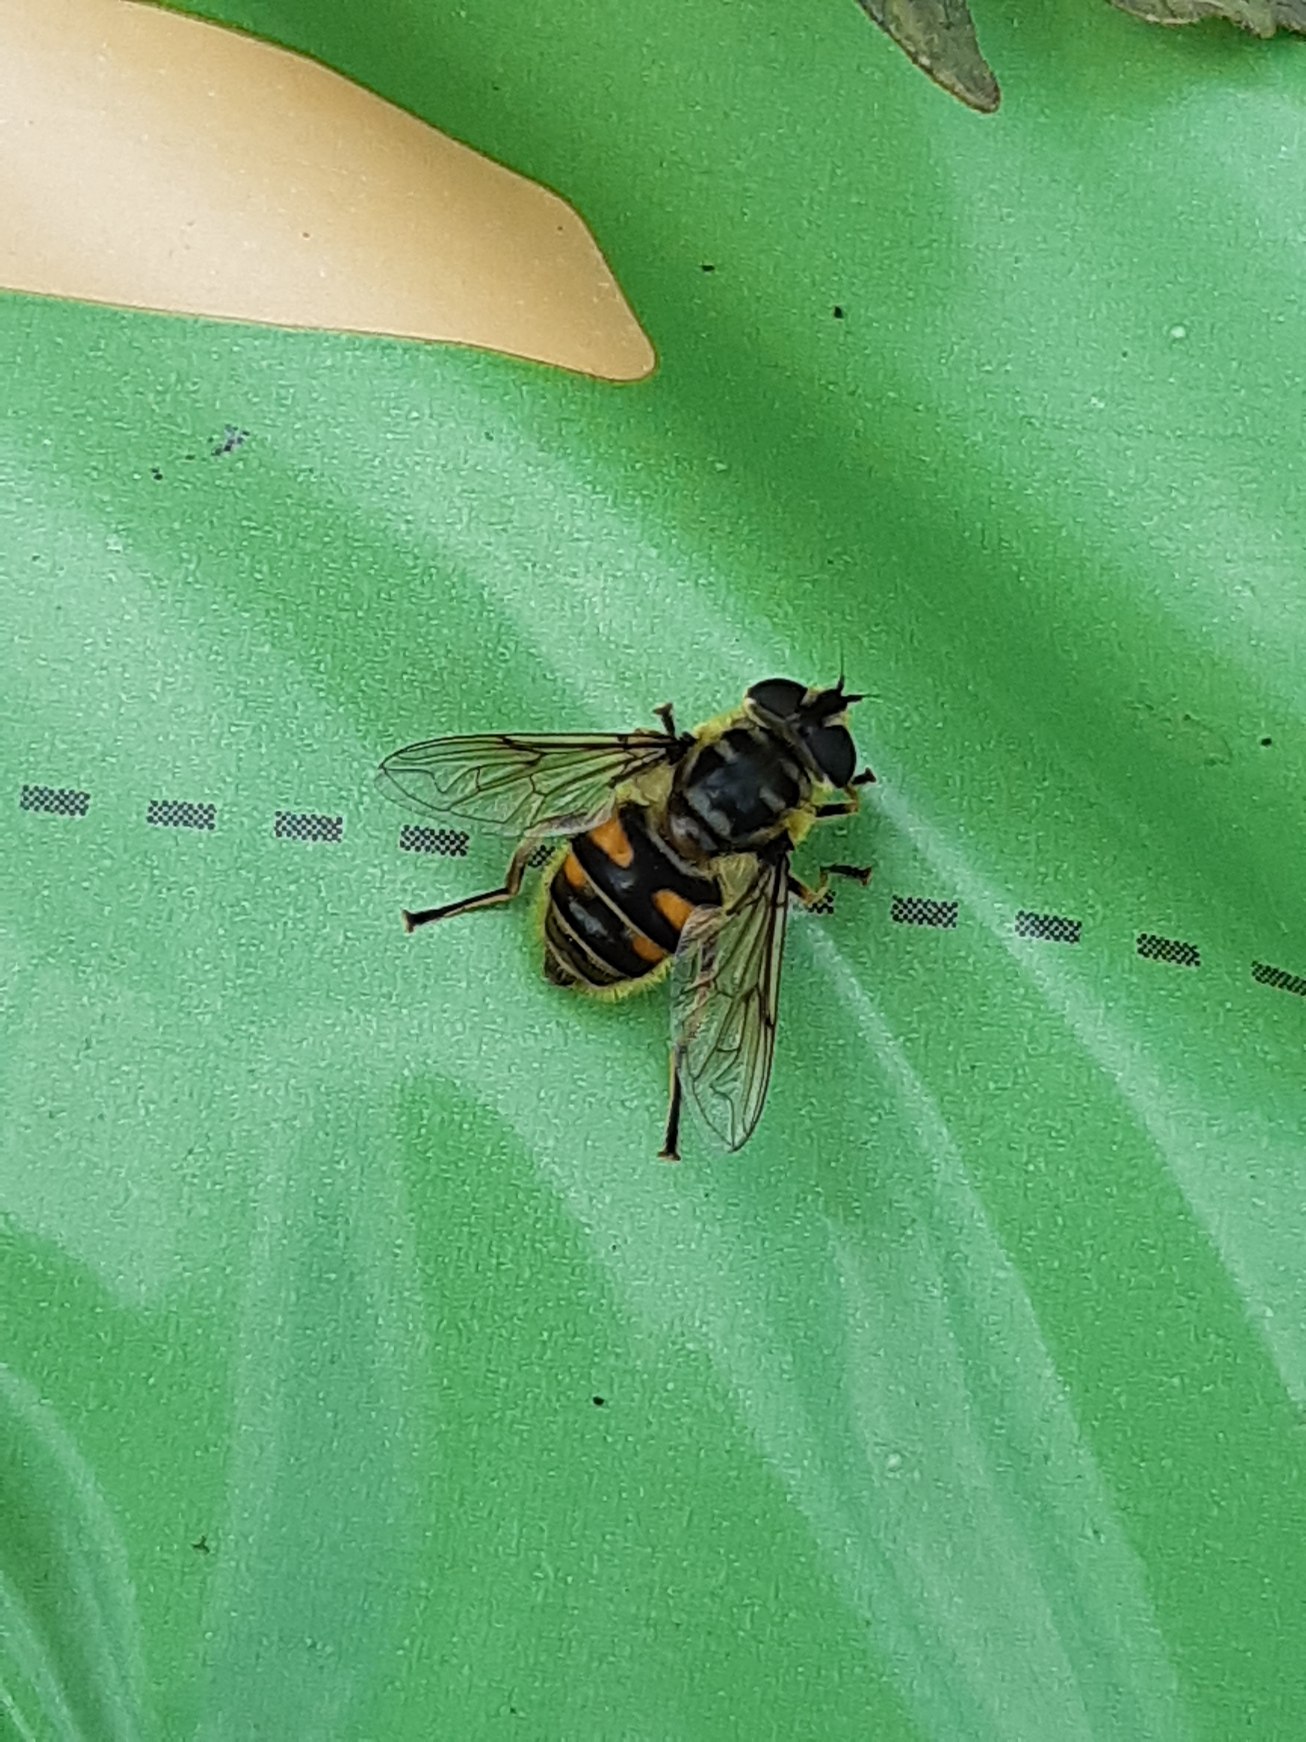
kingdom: Animalia
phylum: Arthropoda
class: Insecta
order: Diptera
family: Syrphidae
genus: Myathropa
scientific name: Myathropa florea
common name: Dødningehoved-svirreflue
